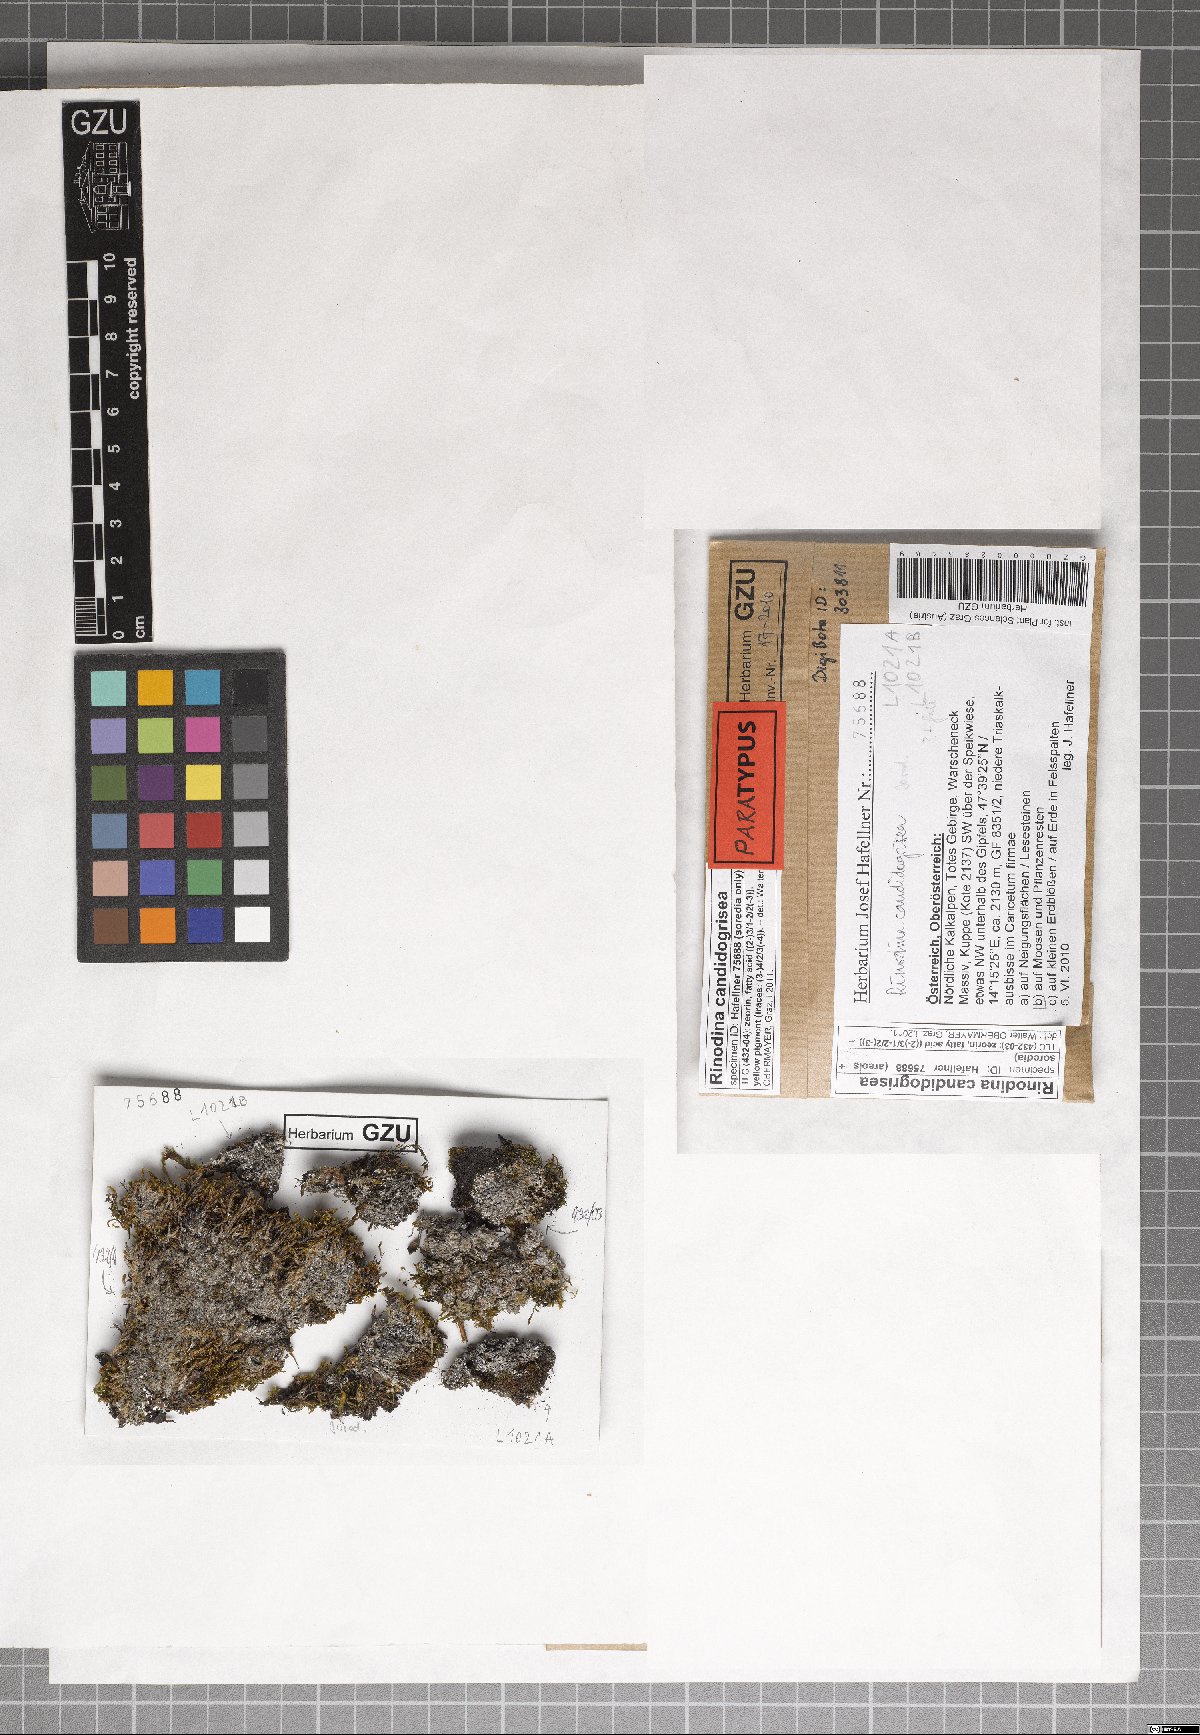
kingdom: Fungi
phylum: Ascomycota
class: Lecanoromycetes
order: Caliciales
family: Physciaceae
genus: Kudratovia
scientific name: Kudratovia candidogrisea
